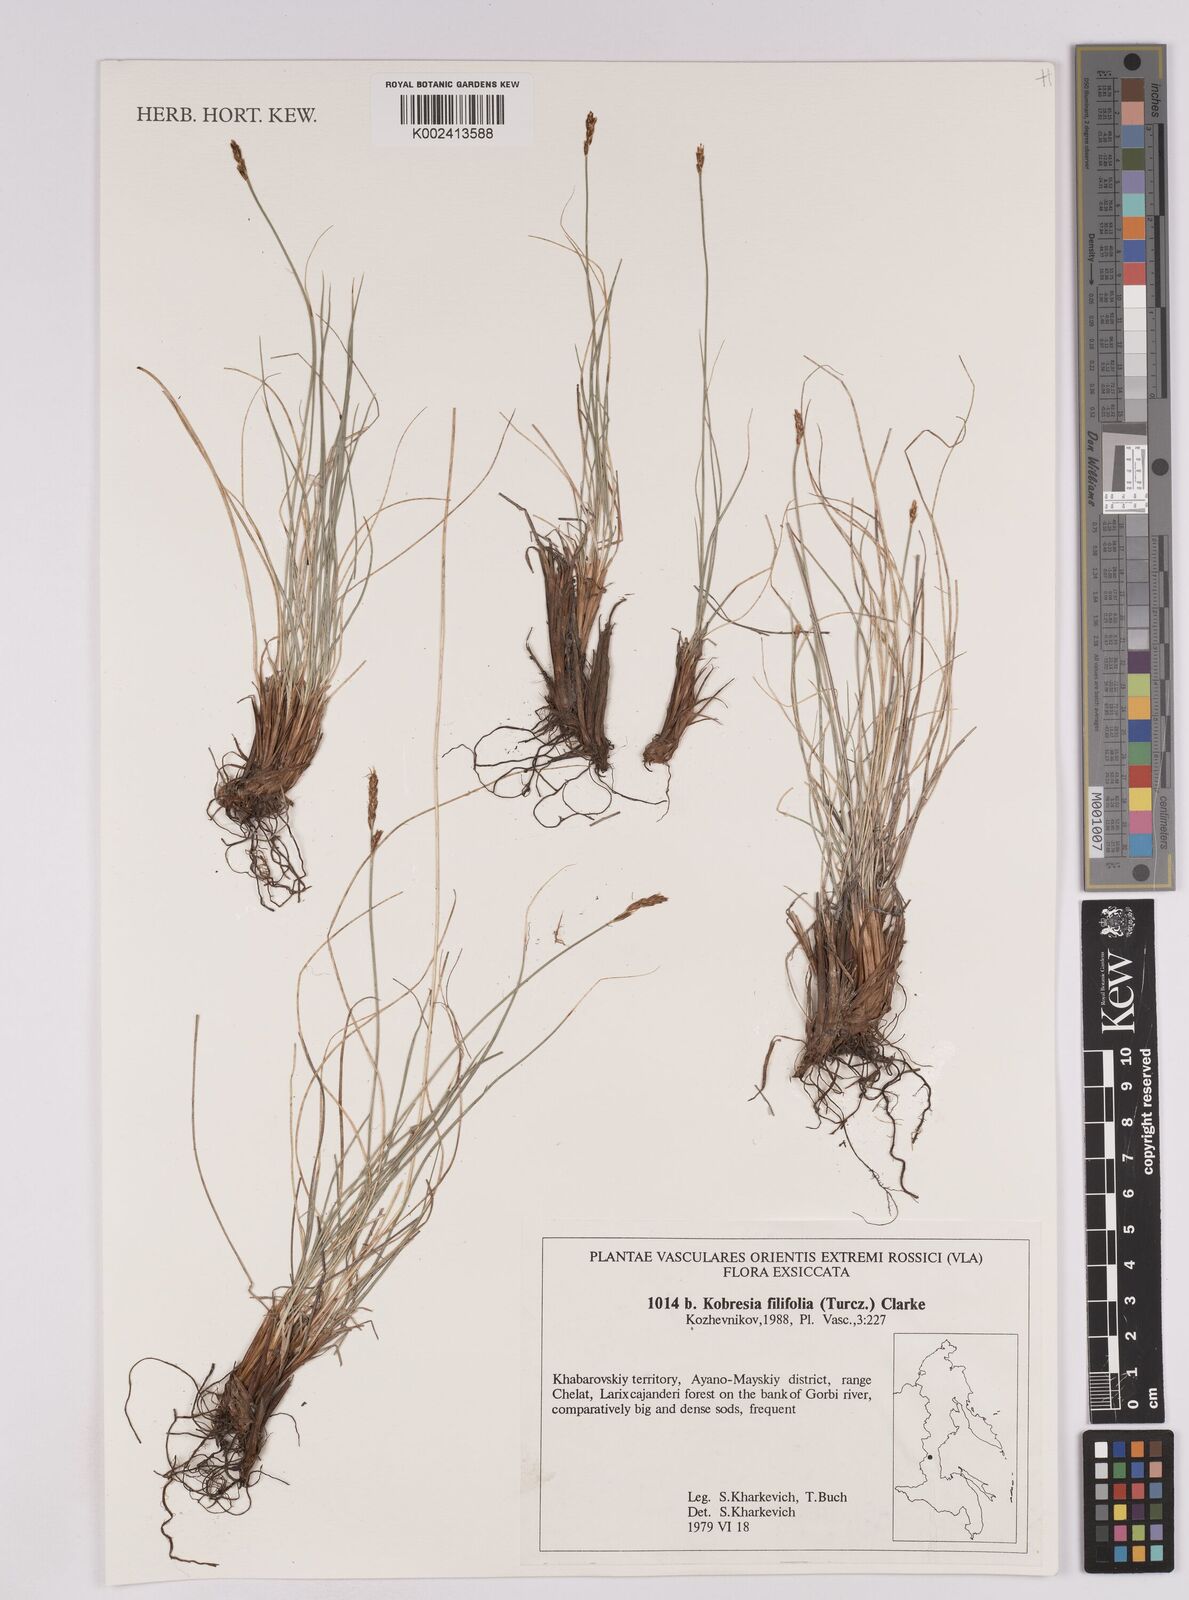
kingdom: Plantae
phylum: Tracheophyta
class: Liliopsida
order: Poales
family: Cyperaceae
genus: Carex
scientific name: Carex macroprophylla
